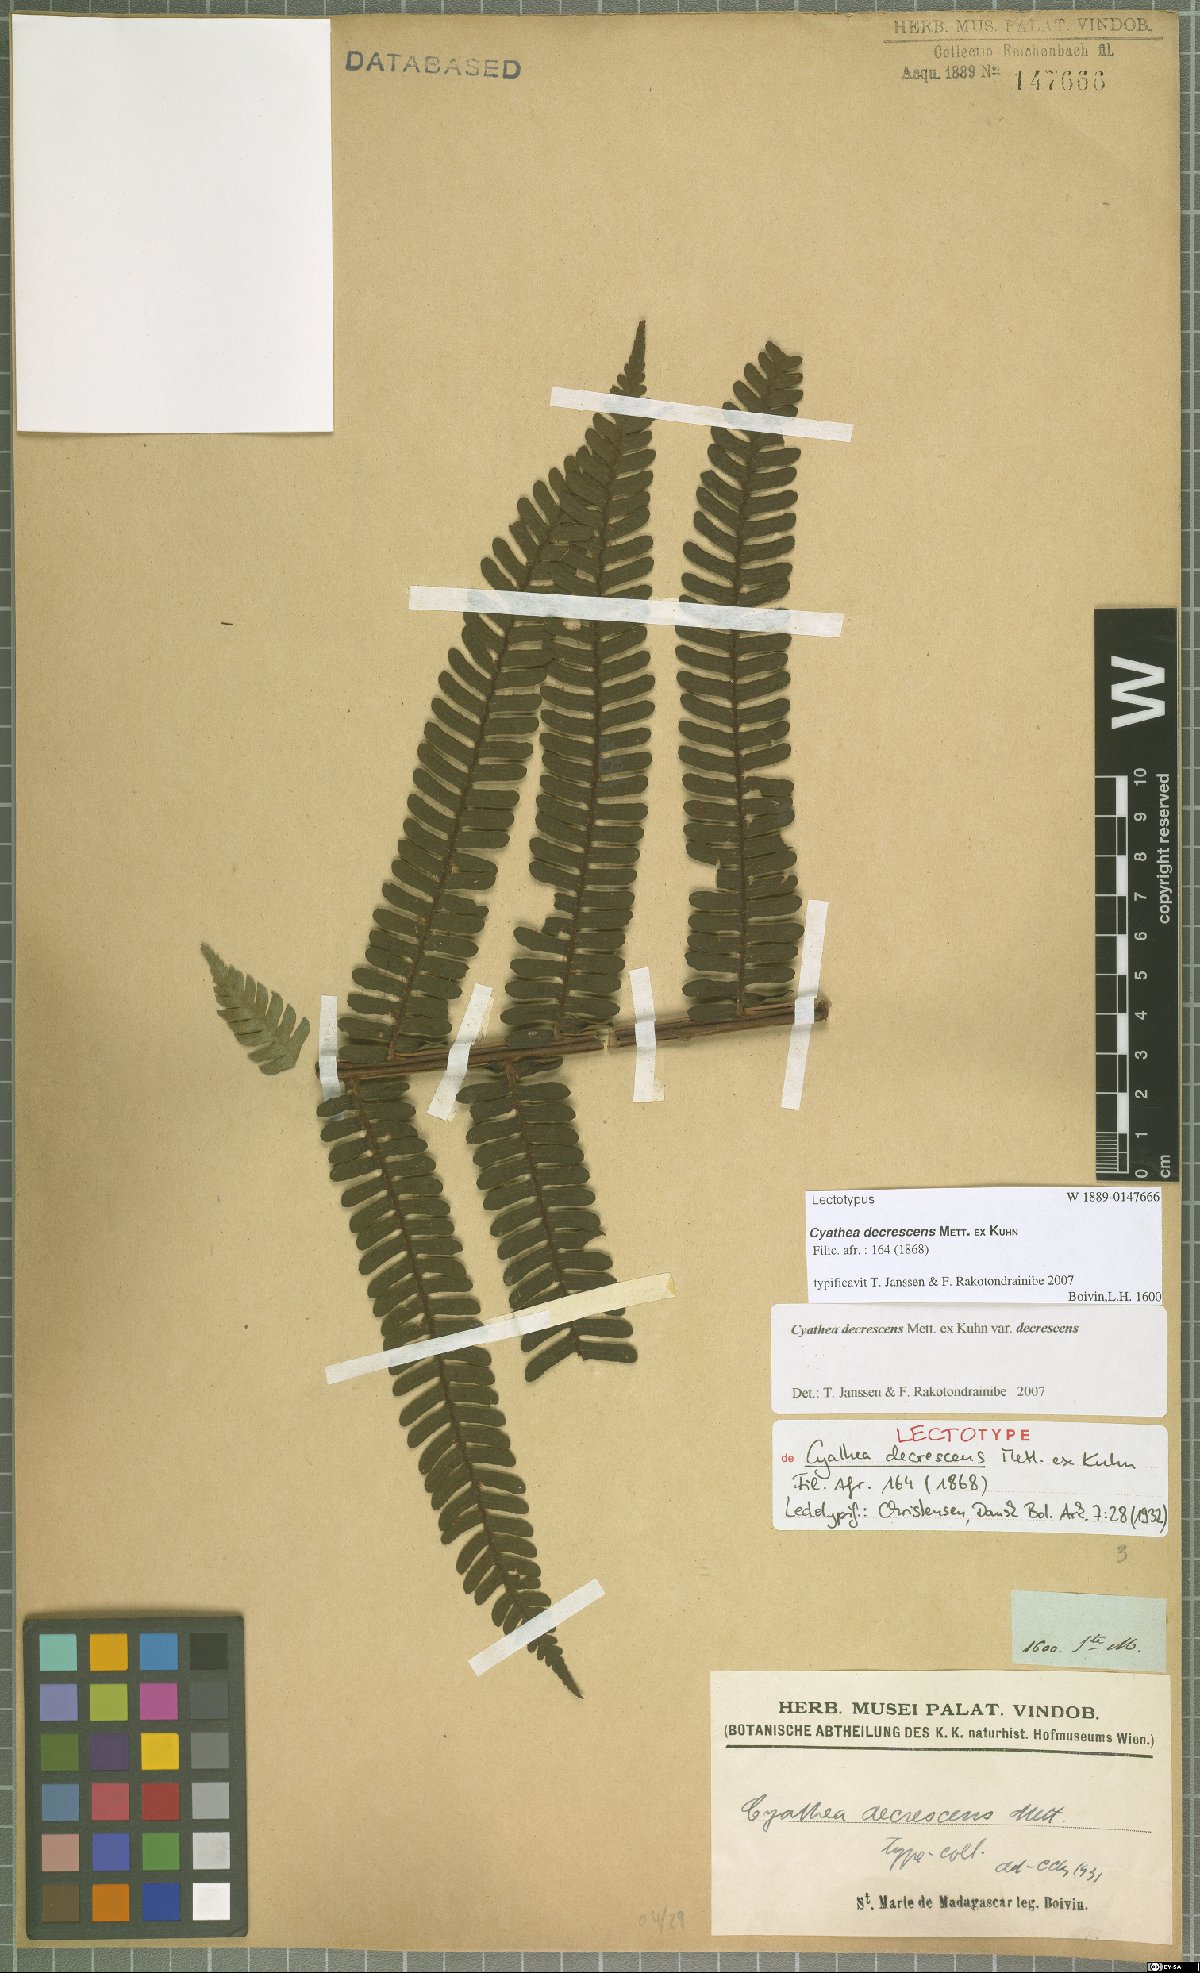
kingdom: Plantae
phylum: Tracheophyta
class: Polypodiopsida
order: Cyatheales
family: Cyatheaceae
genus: Alsophila
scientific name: Alsophila decrescens
